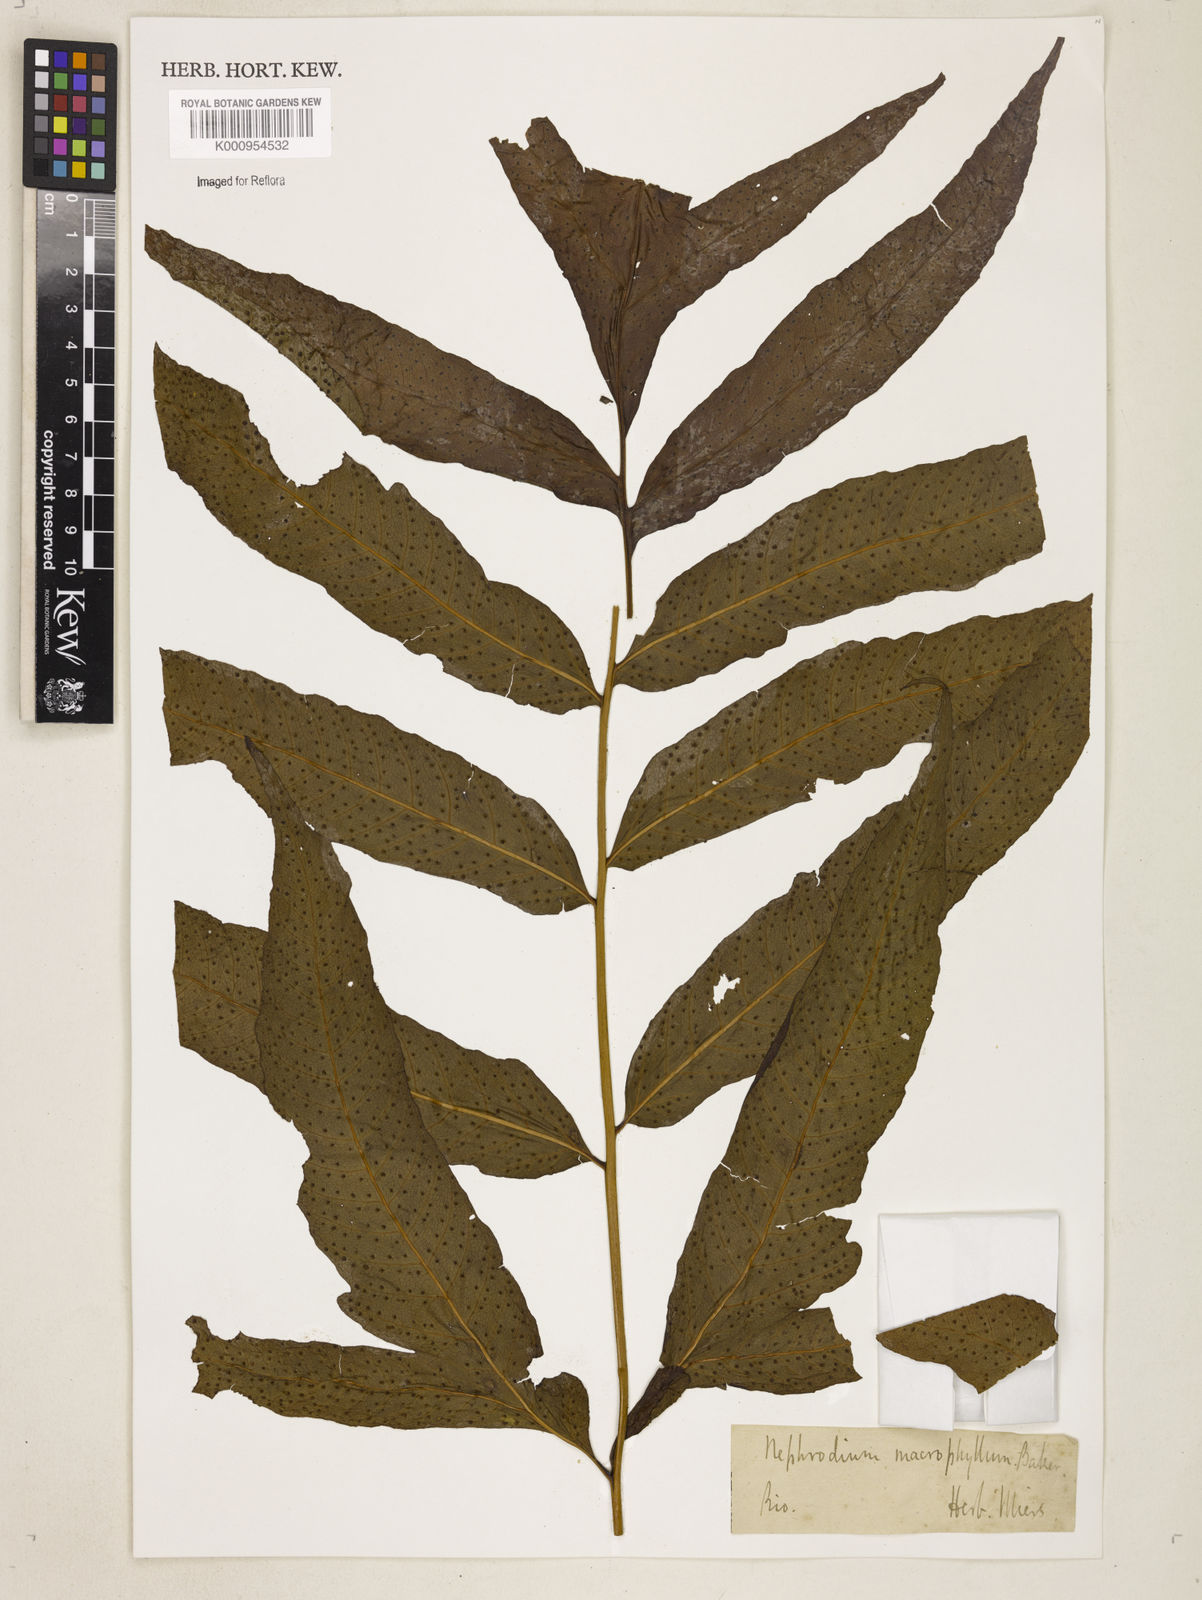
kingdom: Plantae
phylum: Tracheophyta
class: Polypodiopsida
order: Polypodiales
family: Tectariaceae
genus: Tectaria
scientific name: Tectaria incisa
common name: Incised halberd fern
